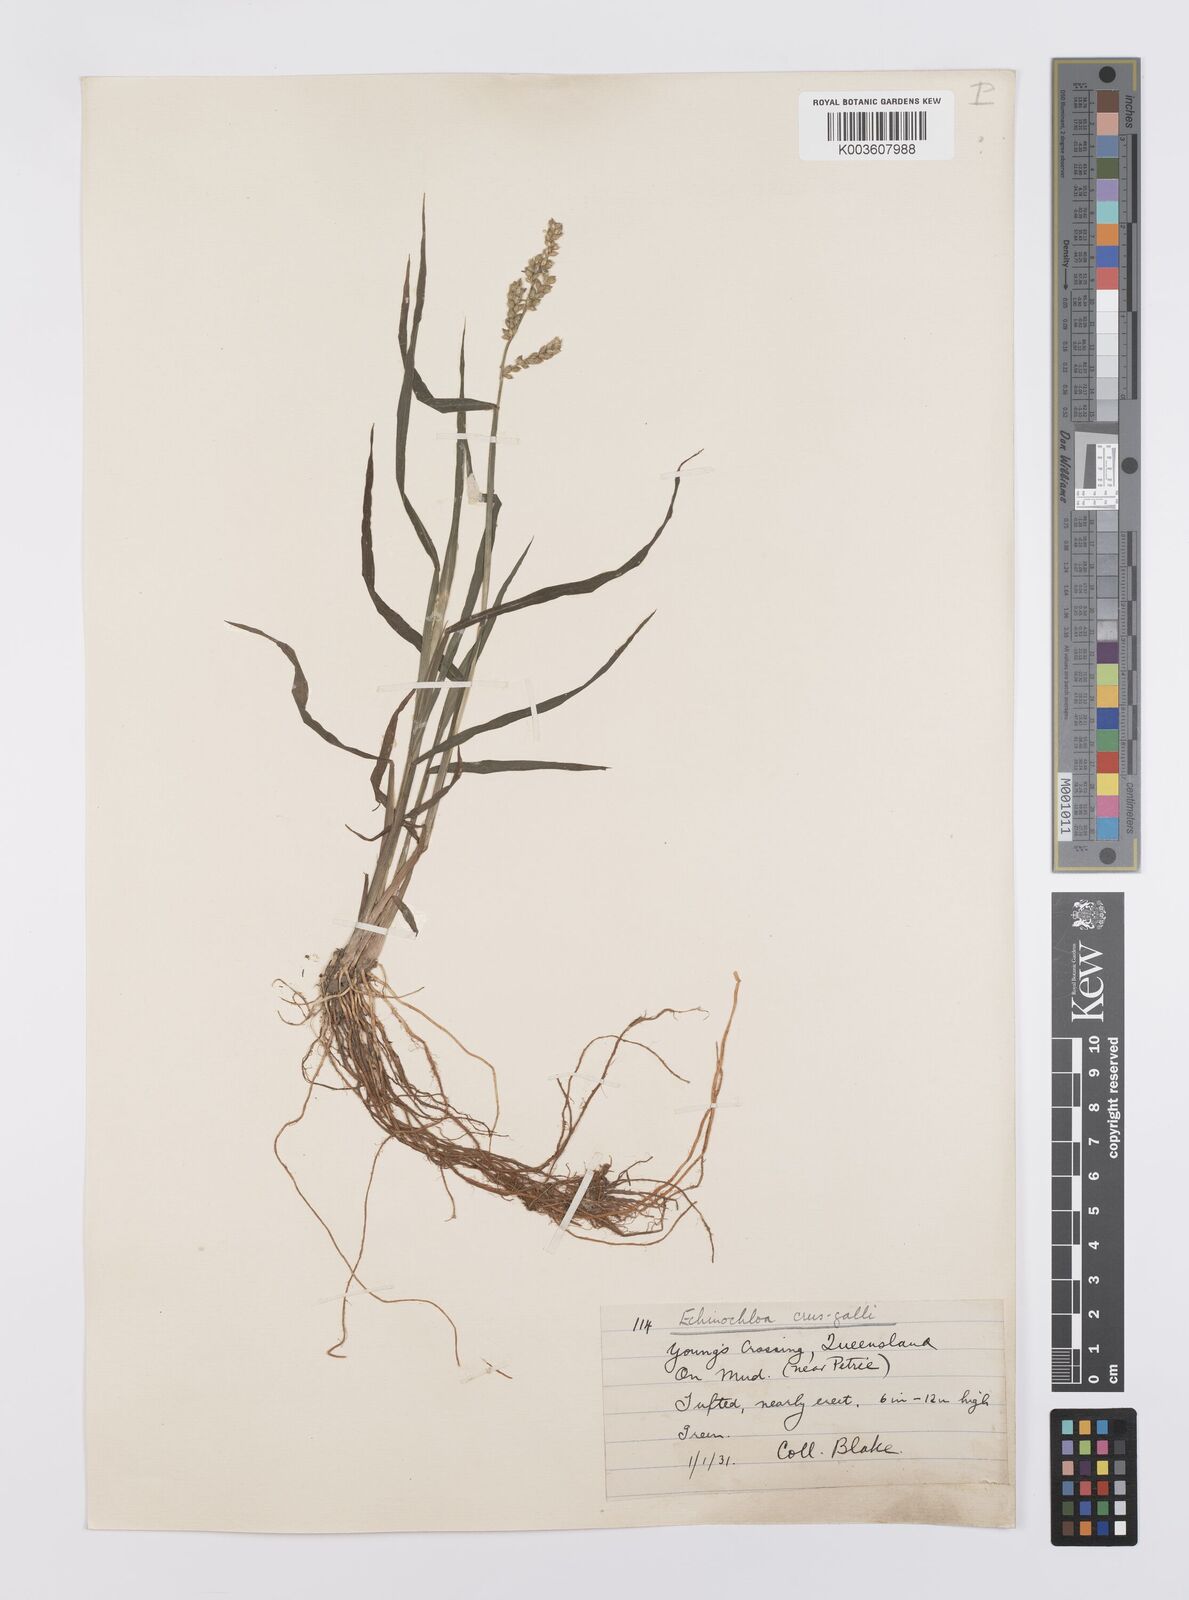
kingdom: Plantae
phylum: Tracheophyta
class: Liliopsida
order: Poales
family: Poaceae
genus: Echinochloa
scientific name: Echinochloa crus-galli
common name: Cockspur
